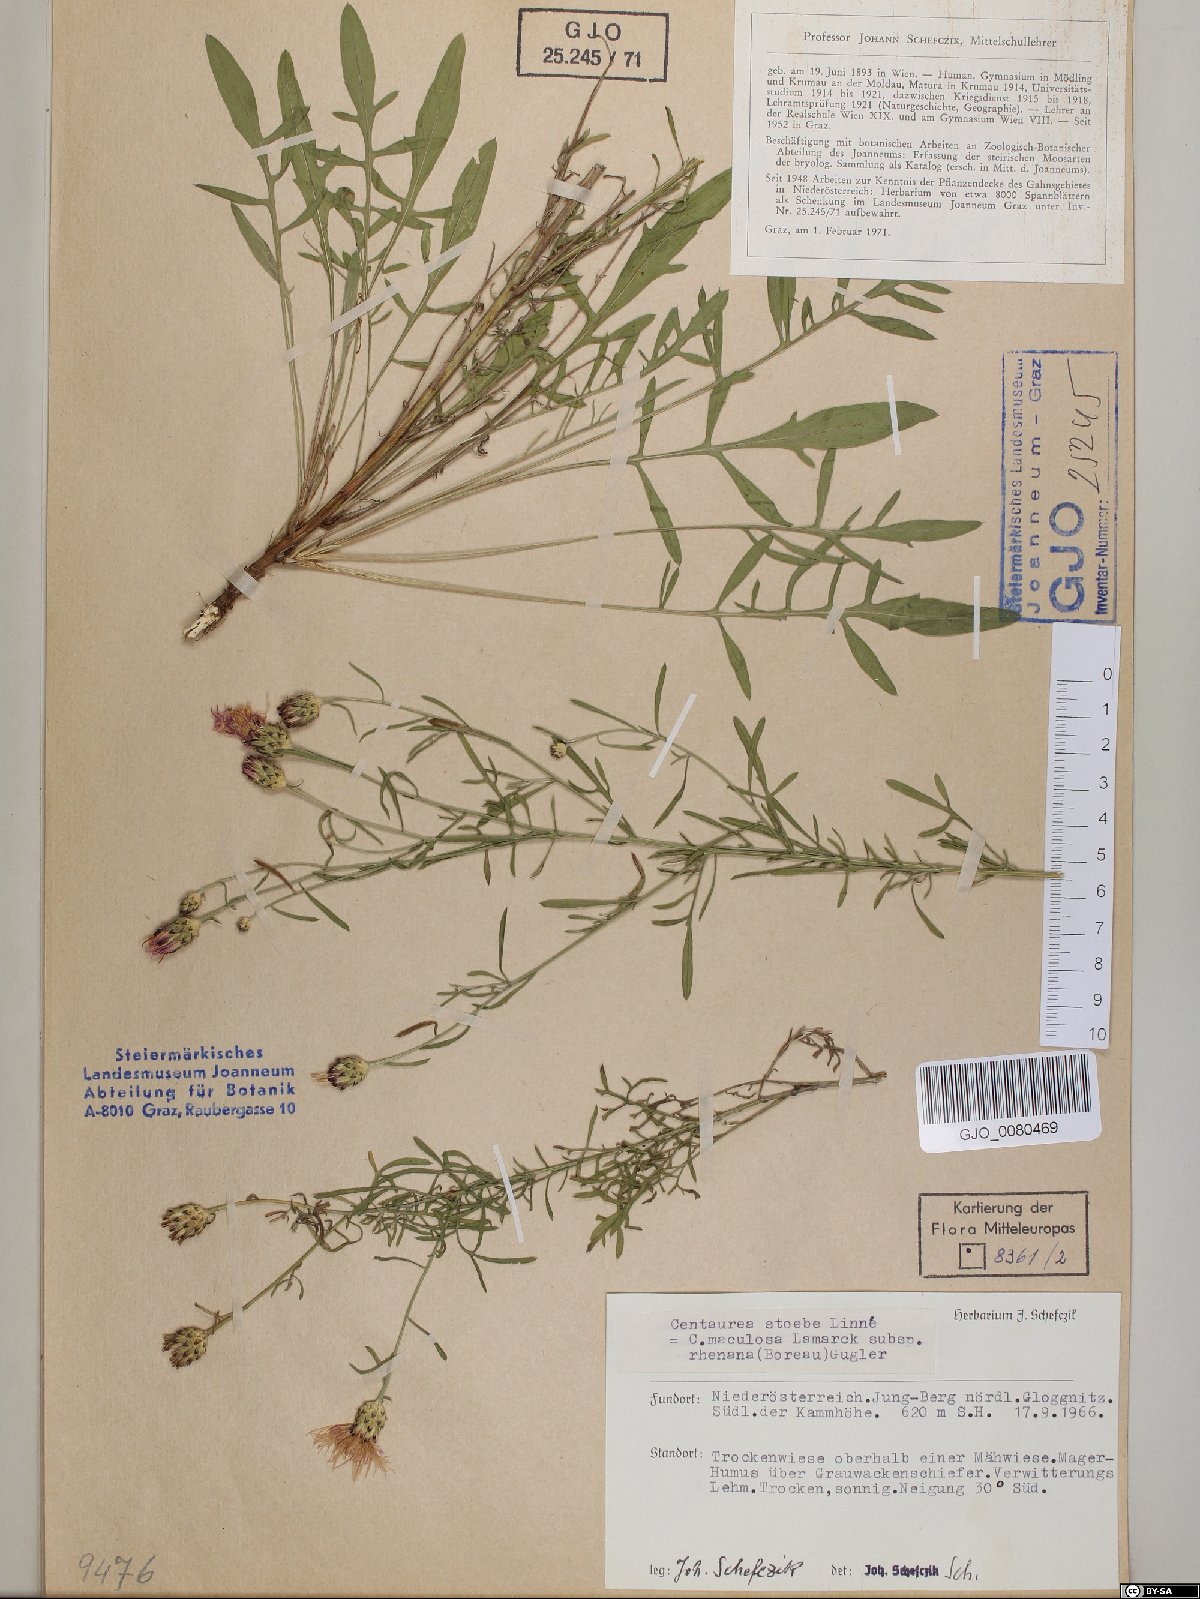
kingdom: Plantae
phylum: Tracheophyta
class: Magnoliopsida
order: Asterales
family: Asteraceae
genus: Centaurea
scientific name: Centaurea stoebe
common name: Spotted knapweed
